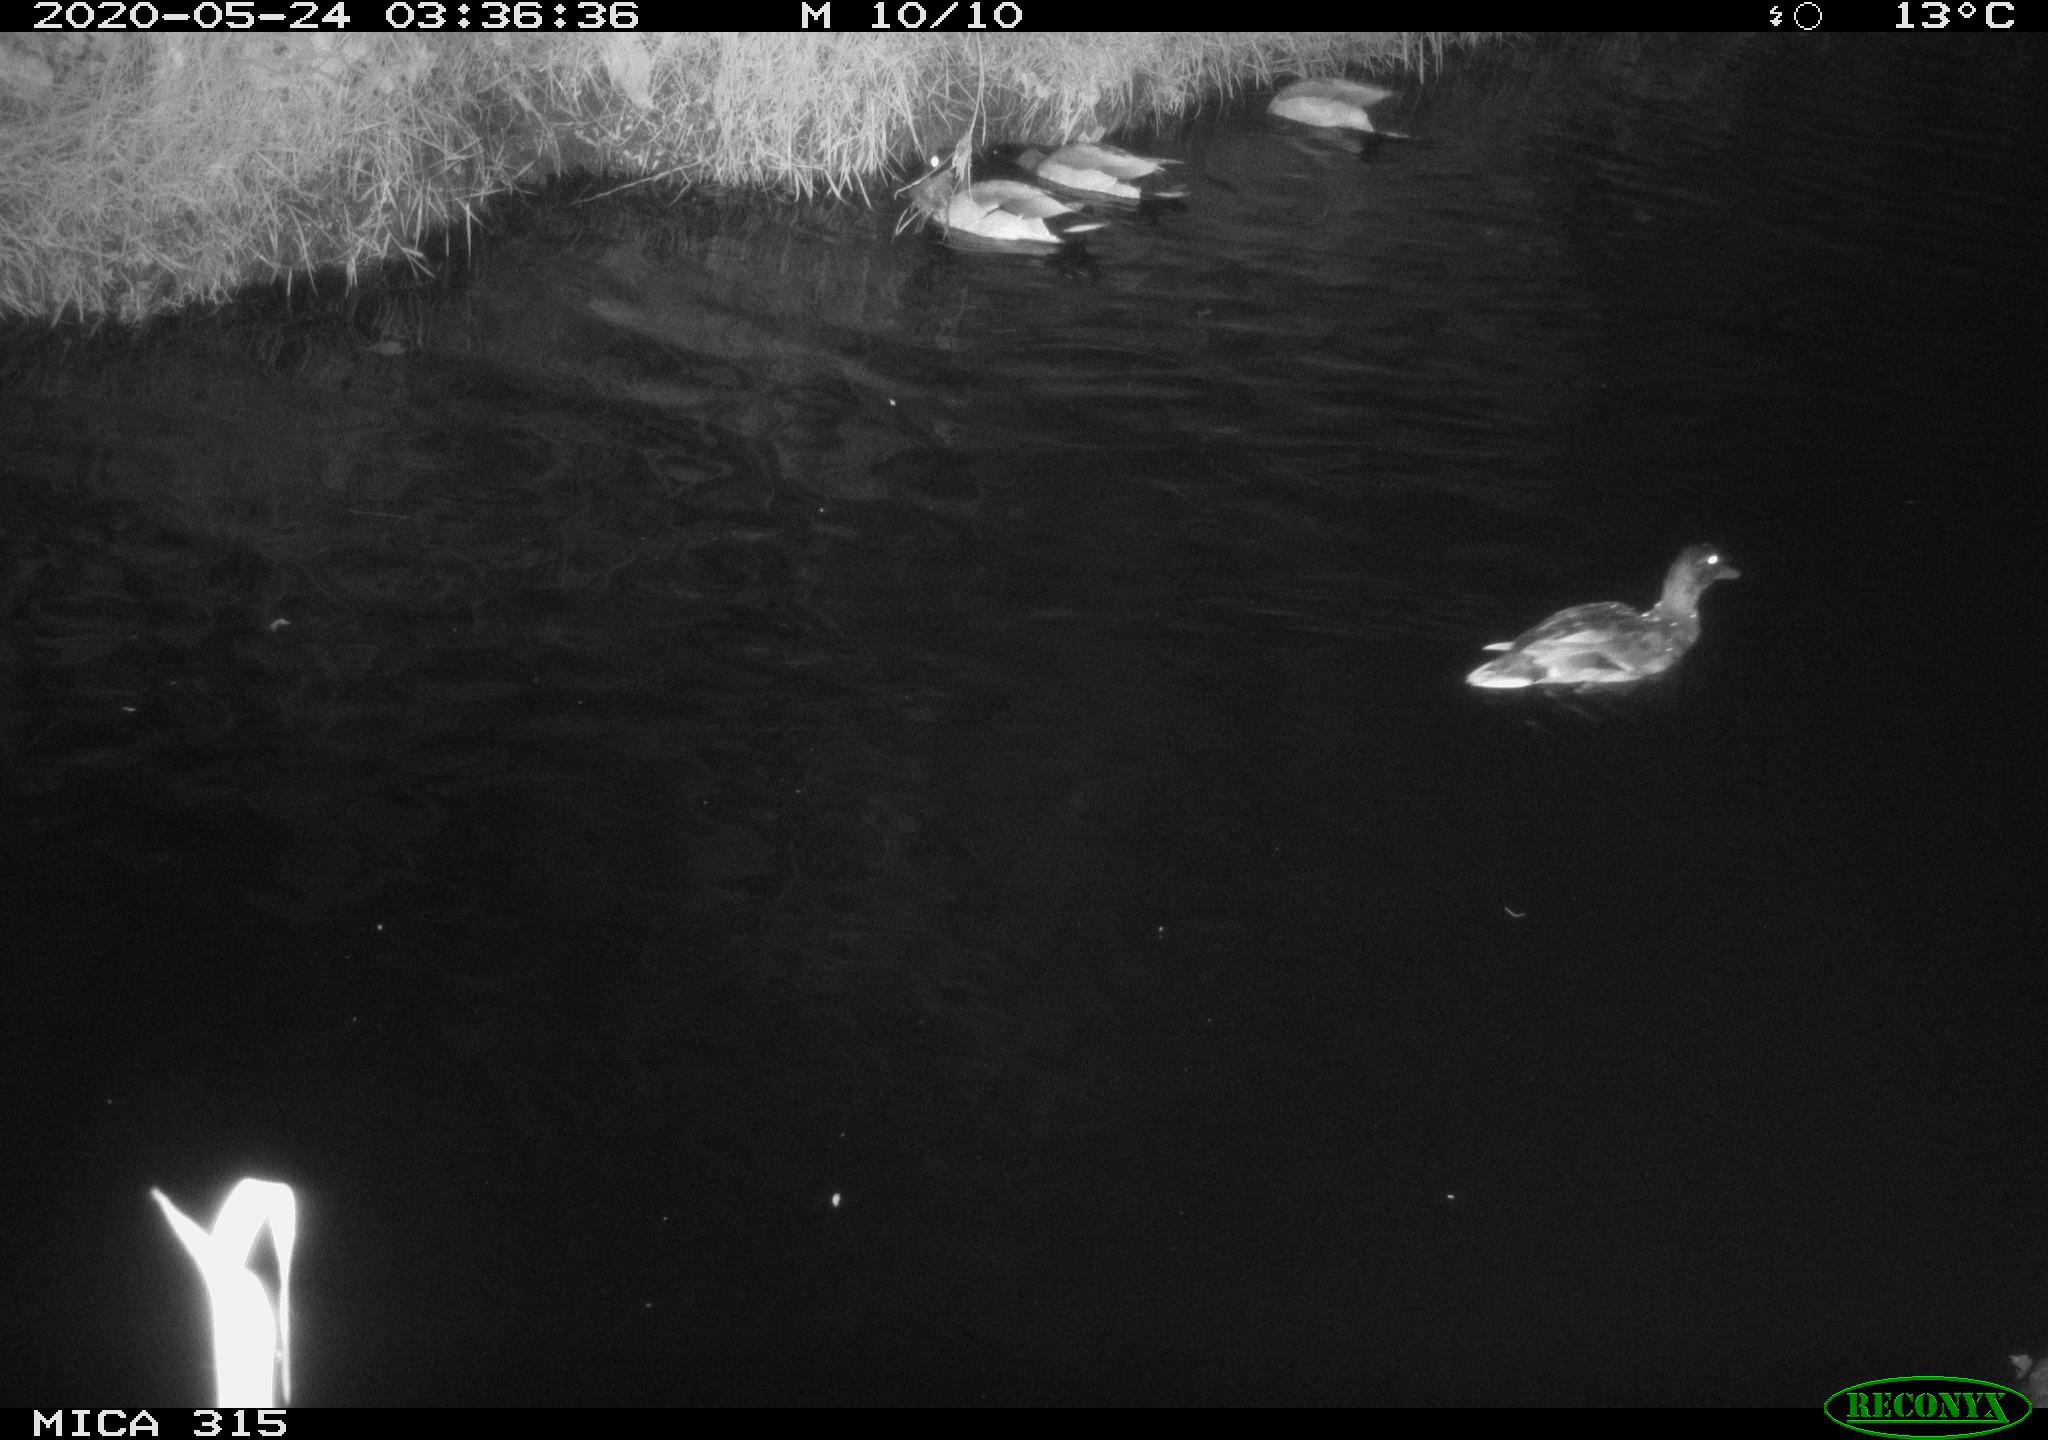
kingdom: Animalia
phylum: Chordata
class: Aves
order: Anseriformes
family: Anatidae
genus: Anas
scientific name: Anas platyrhynchos
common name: Mallard
